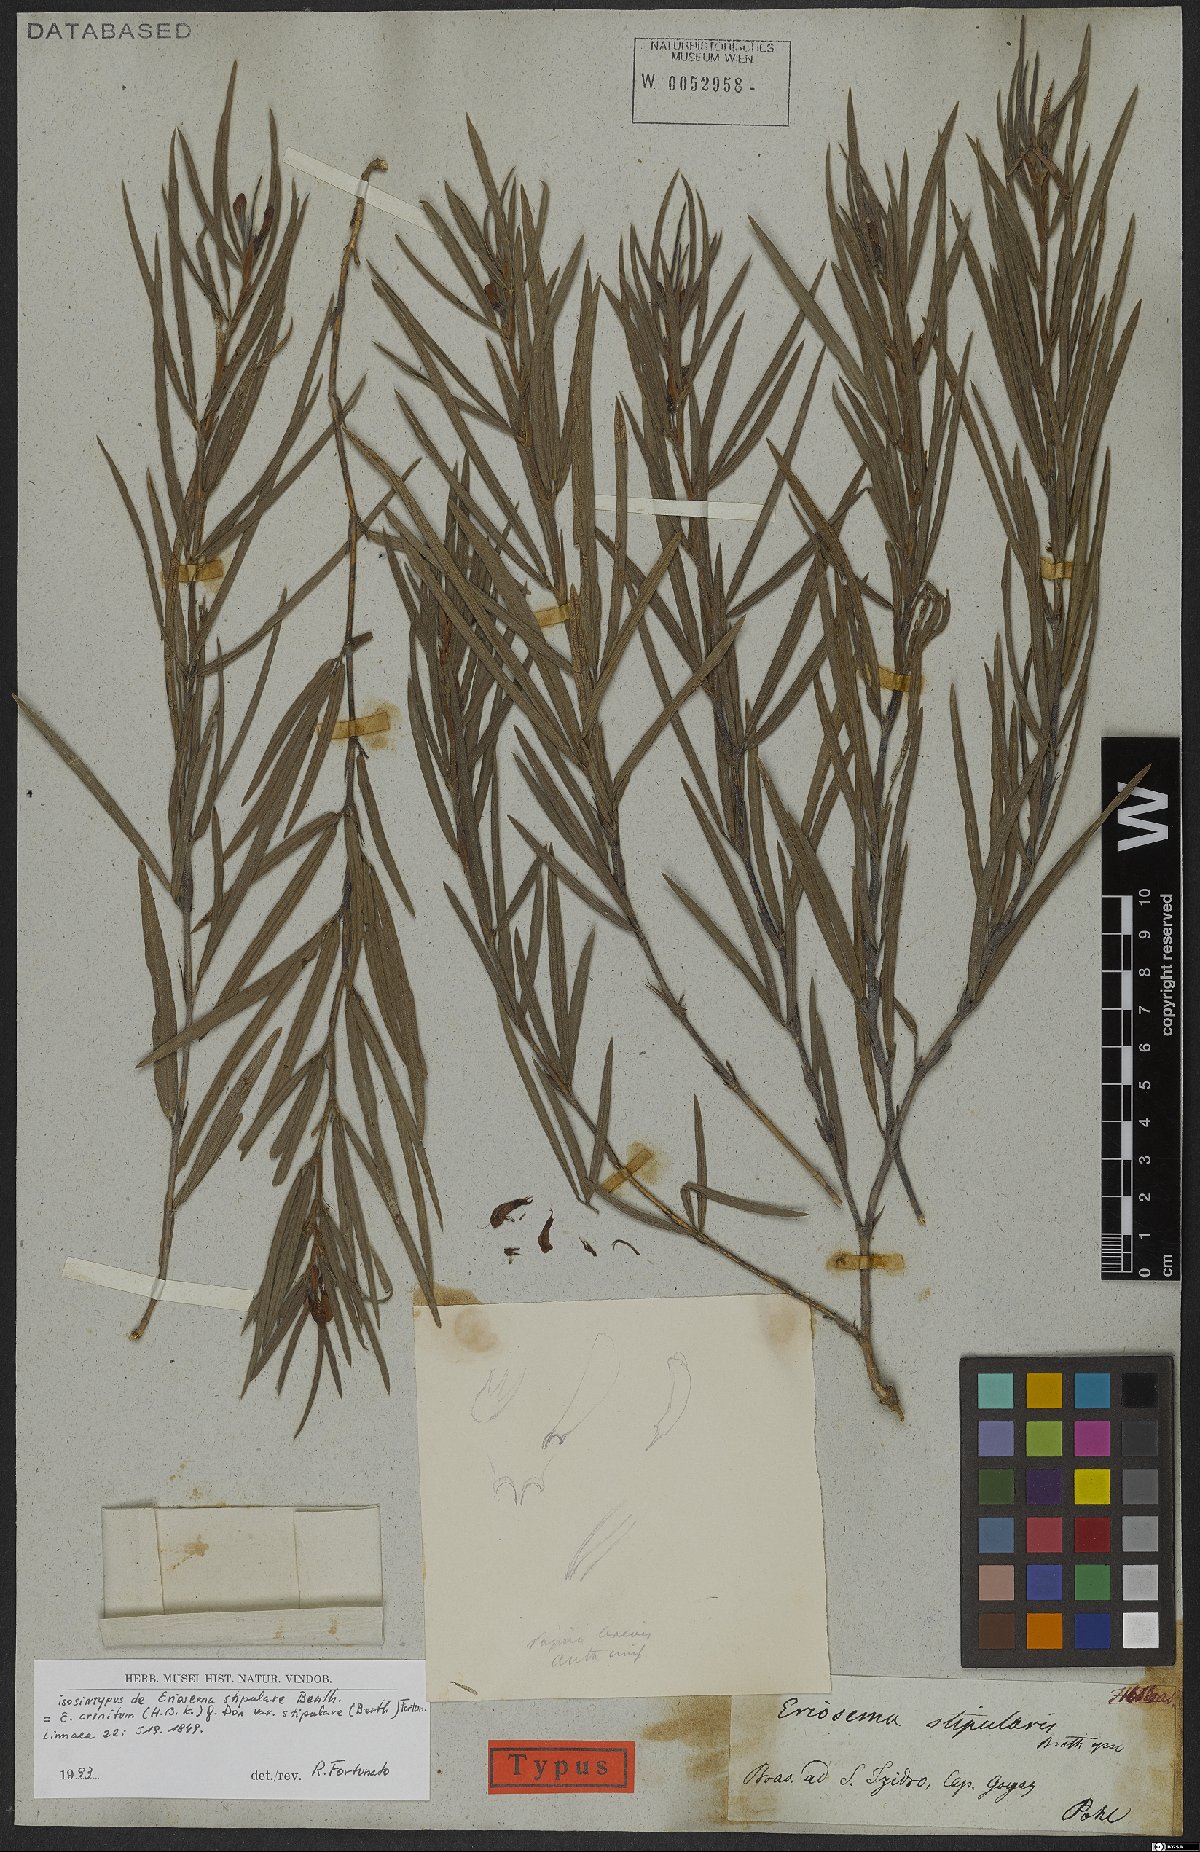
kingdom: Plantae
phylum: Tracheophyta
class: Magnoliopsida
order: Fabales
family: Fabaceae
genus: Eriosema
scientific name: Eriosema crinitum
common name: Sand pea
